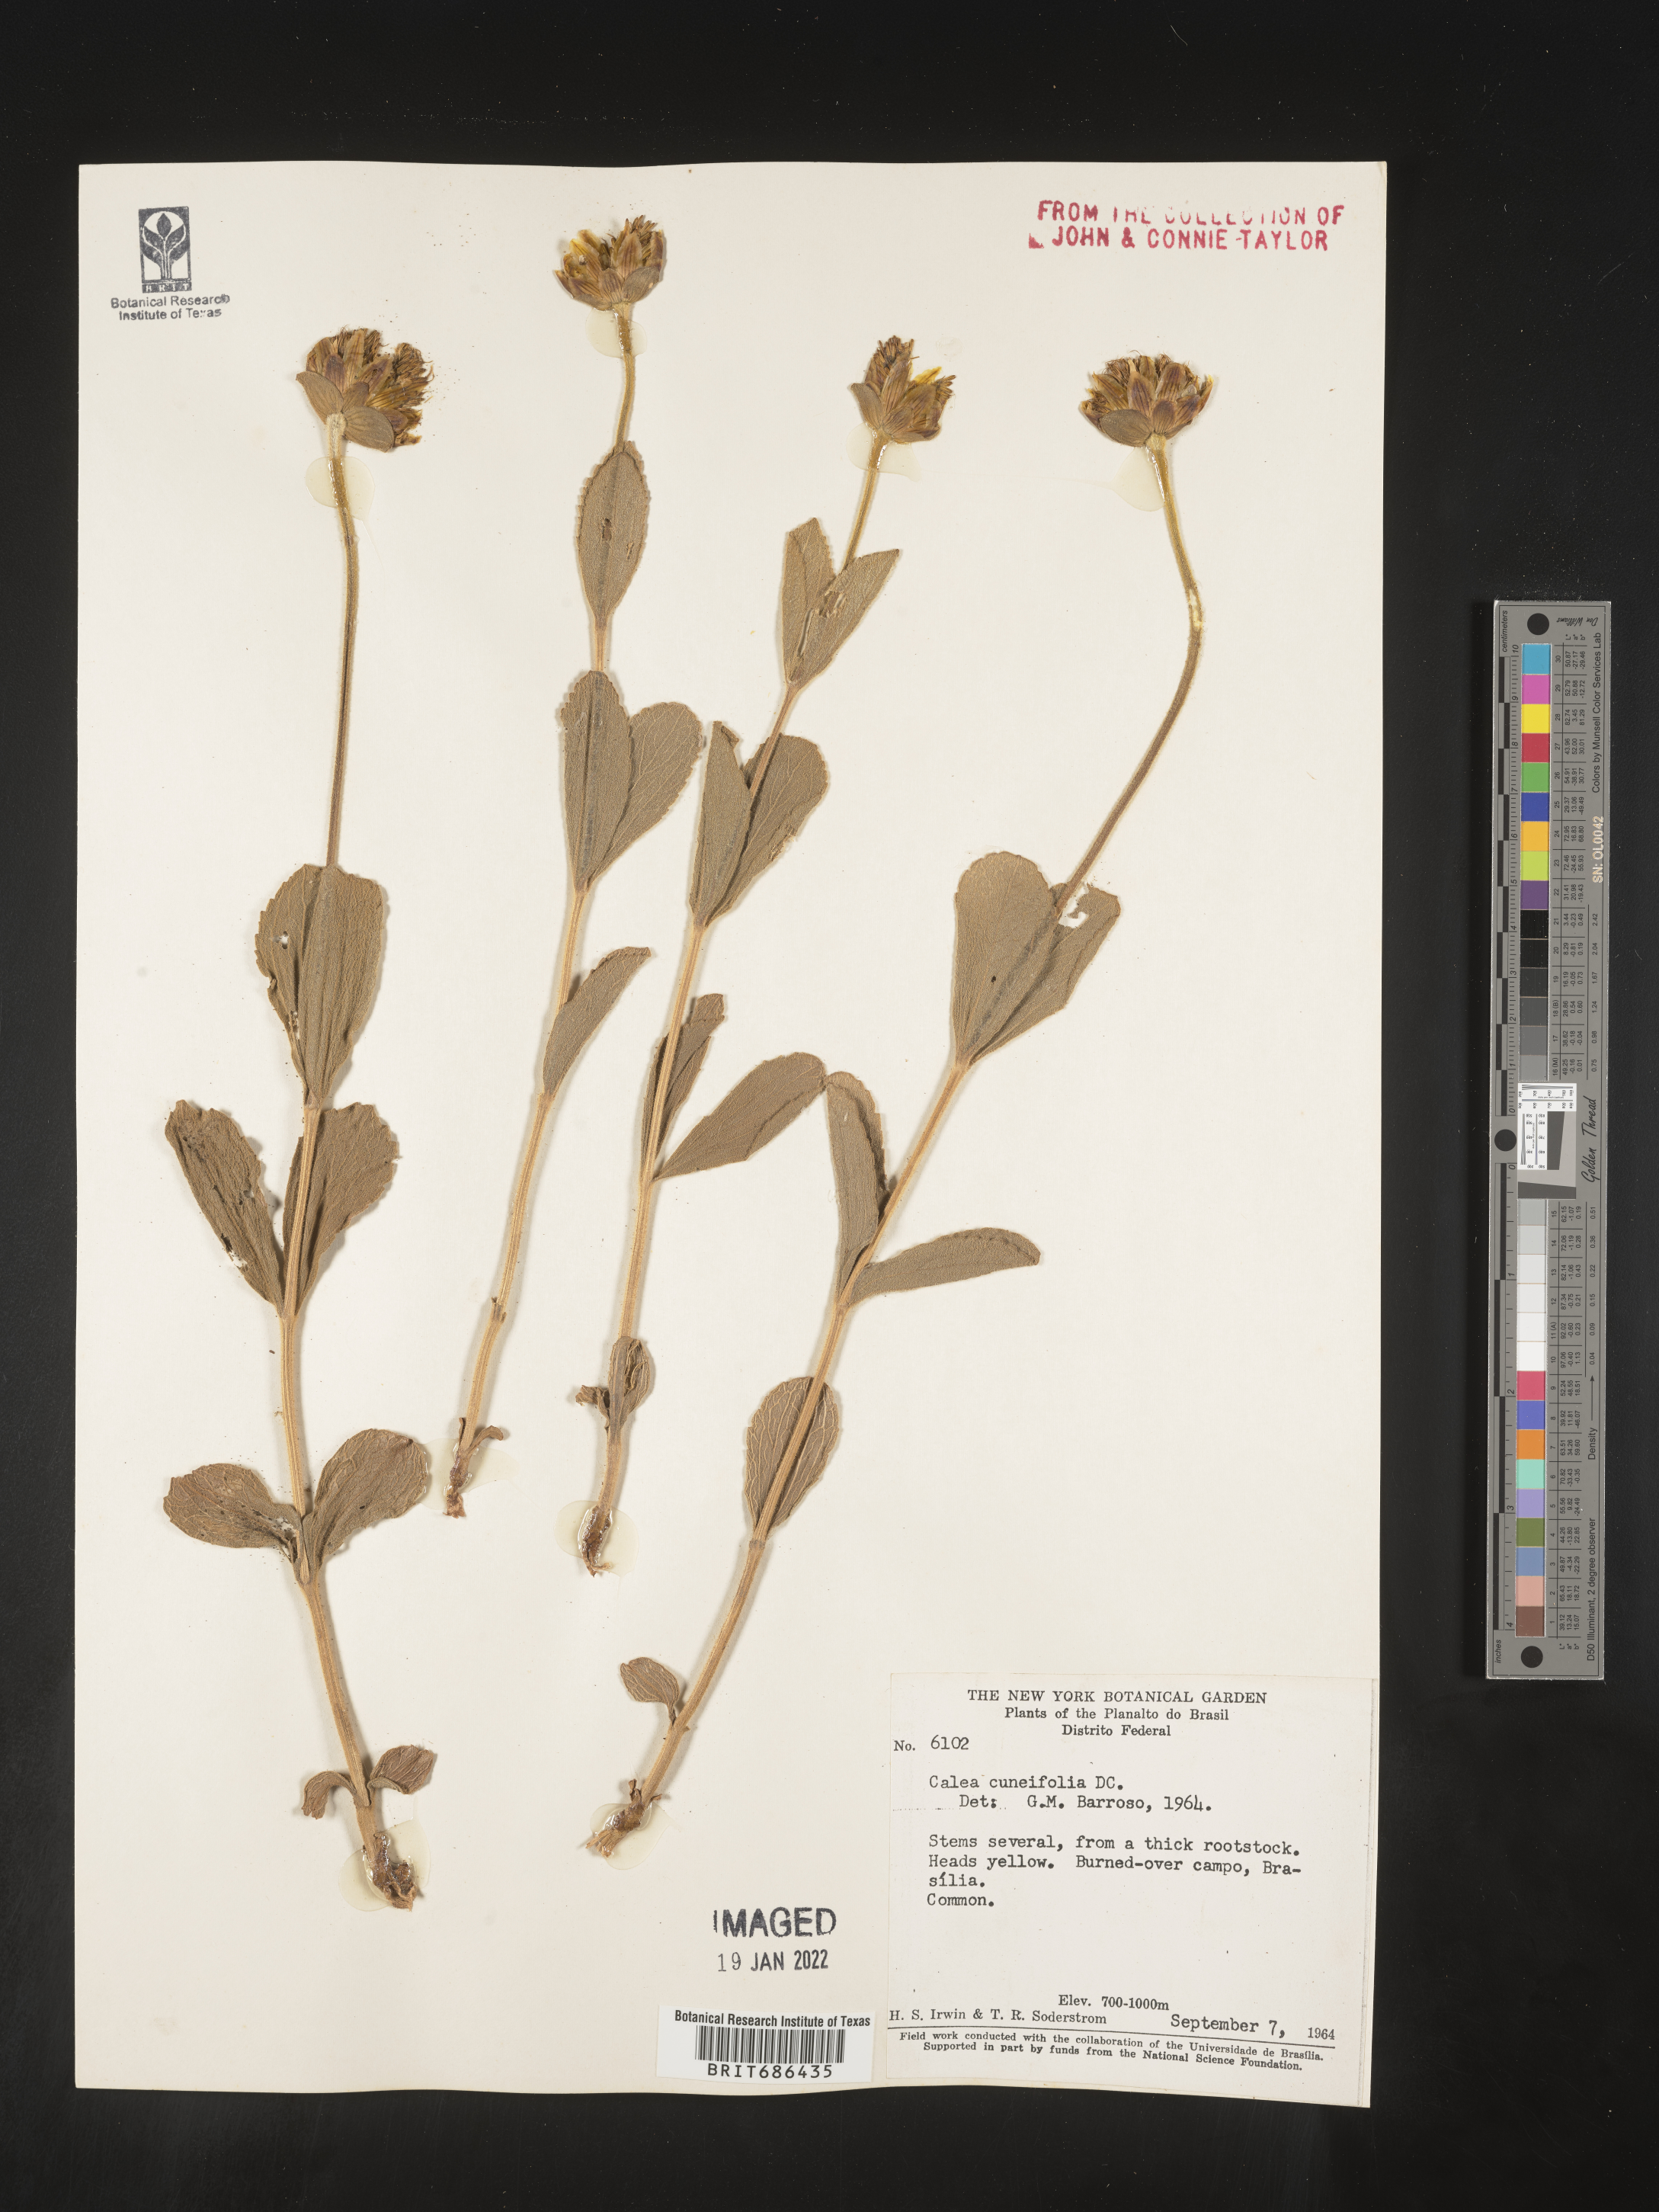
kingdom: Plantae
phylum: Tracheophyta
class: Magnoliopsida
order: Asterales
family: Asteraceae
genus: Calea
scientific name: Calea pohliana
